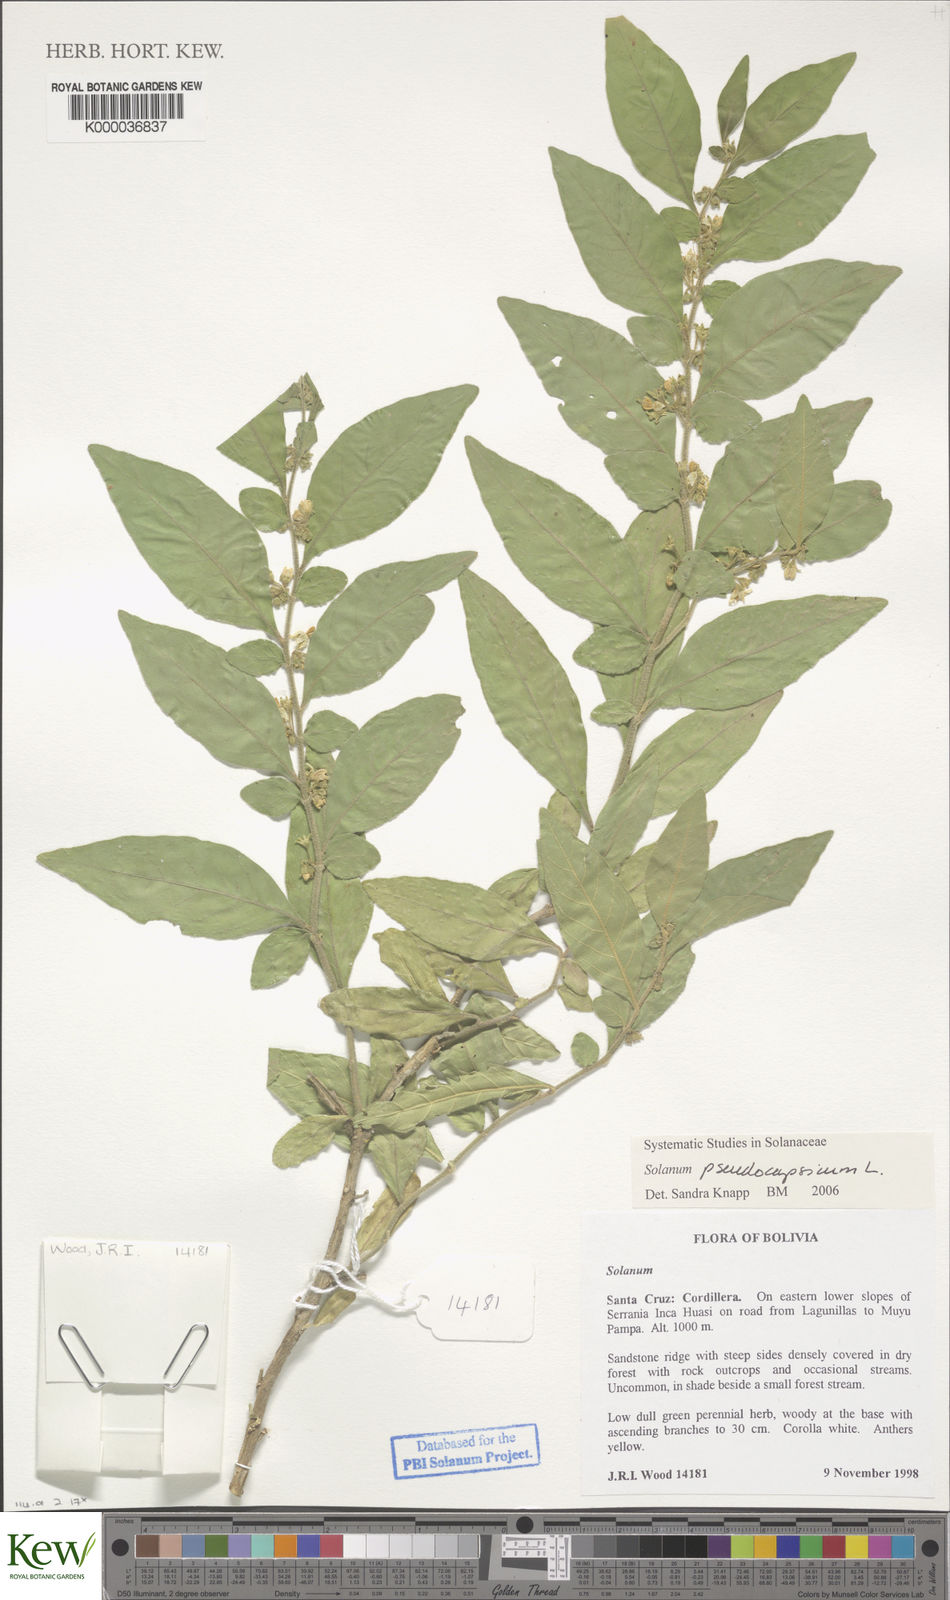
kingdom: Plantae
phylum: Tracheophyta
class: Magnoliopsida
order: Solanales
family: Solanaceae
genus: Solanum
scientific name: Solanum pseudocapsicum
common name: Jerusalem cherry
